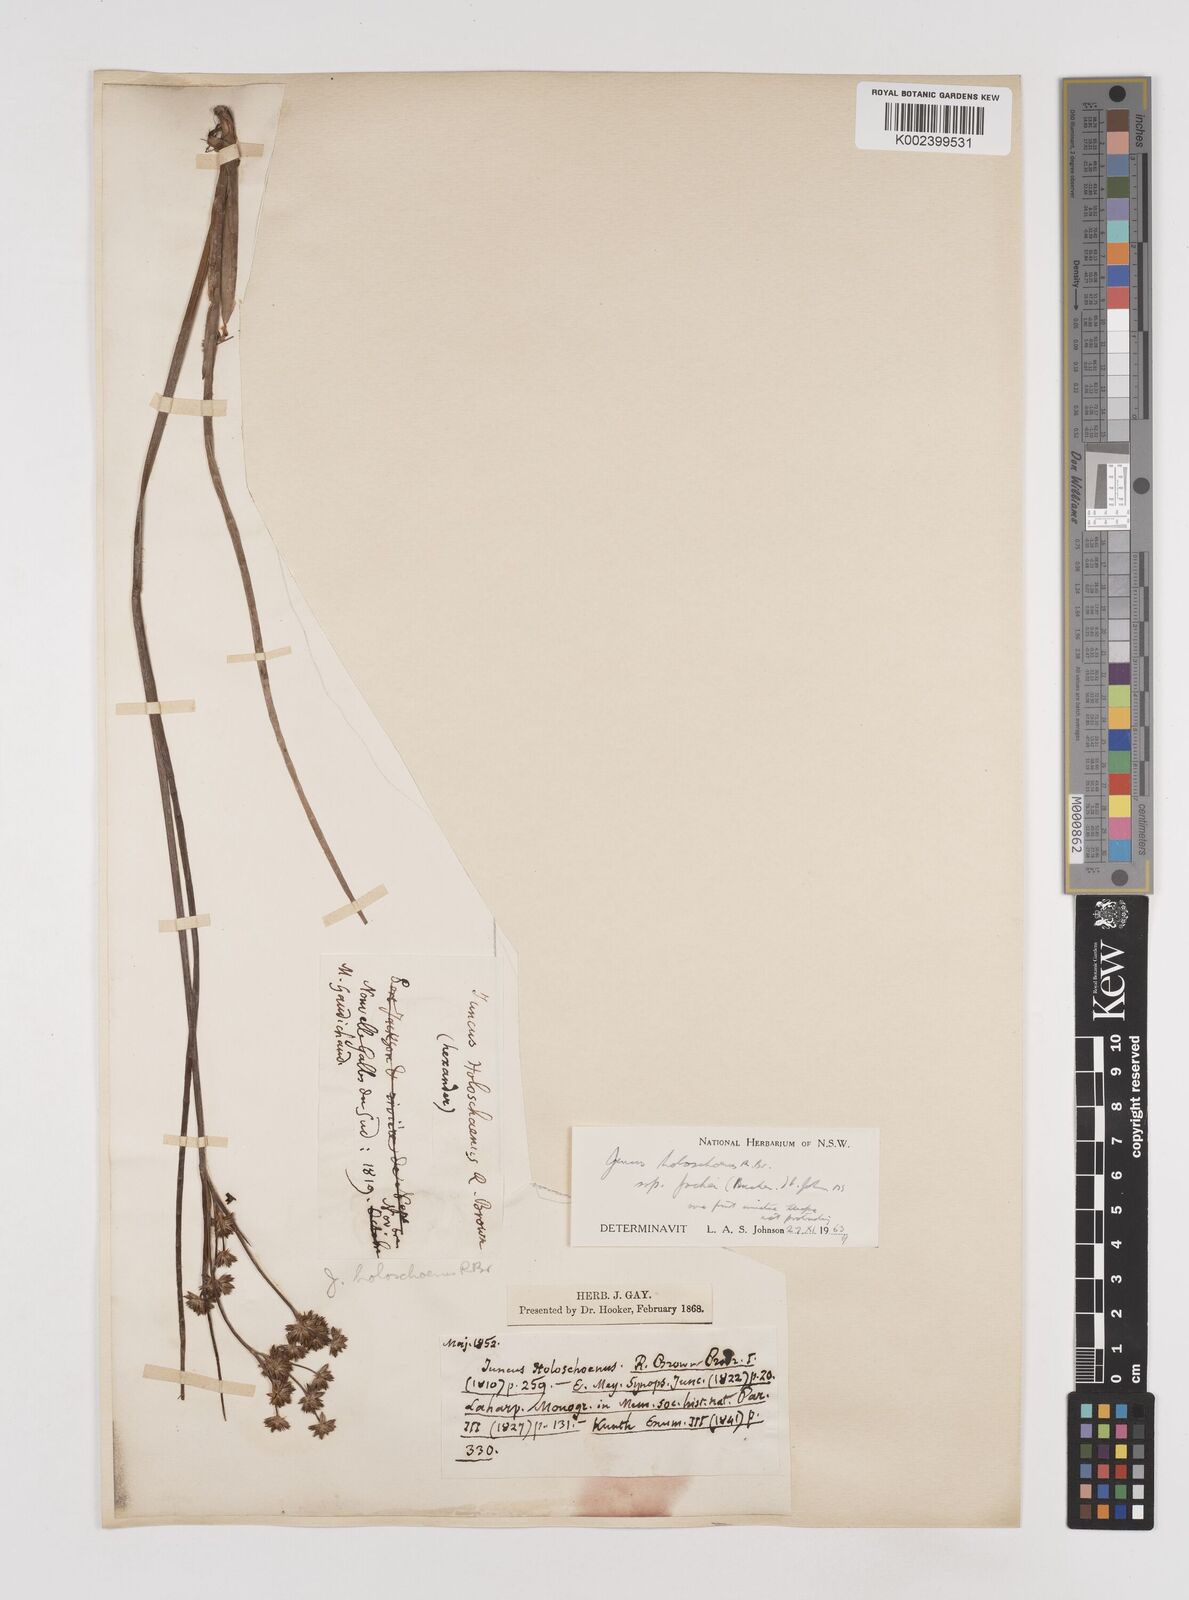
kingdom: Plantae
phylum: Tracheophyta
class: Liliopsida
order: Poales
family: Juncaceae
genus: Juncus
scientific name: Juncus holoschoenus
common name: Joint-leaf rush
